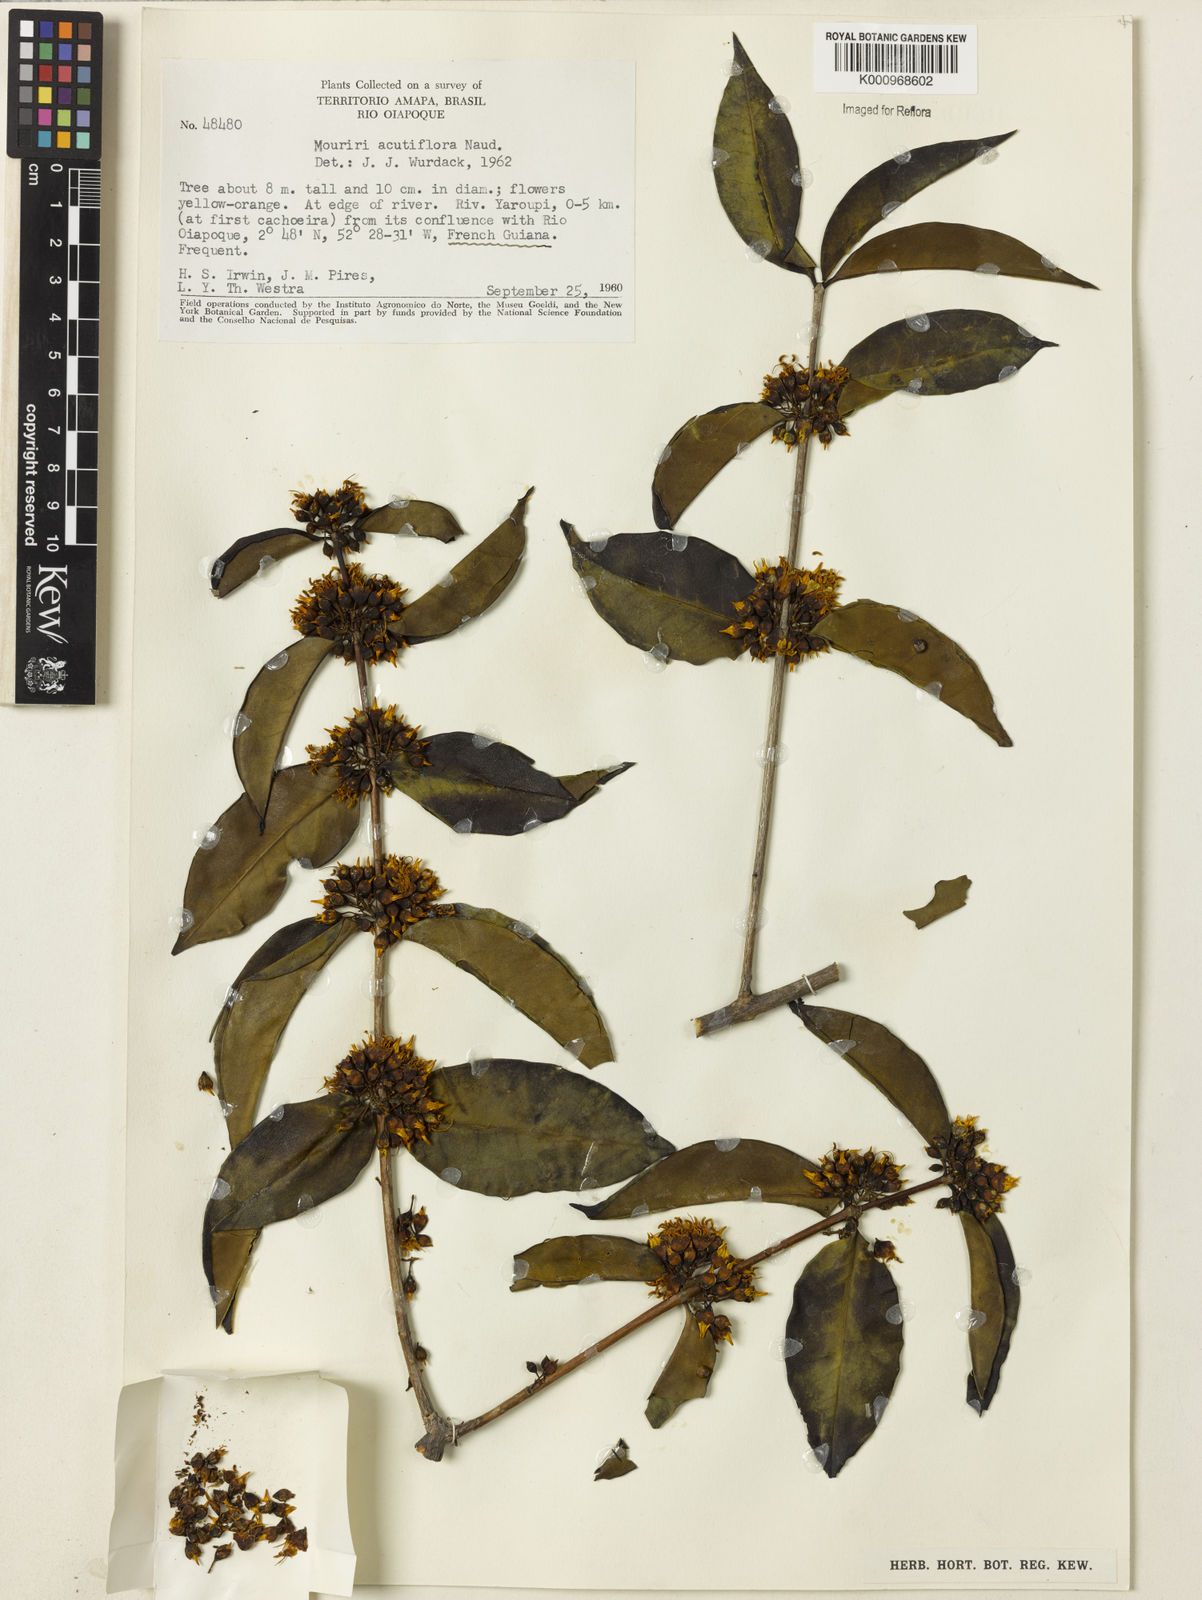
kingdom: Plantae
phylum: Tracheophyta
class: Magnoliopsida
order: Myrtales
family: Melastomataceae
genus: Mouriri
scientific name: Mouriri acutiflora
